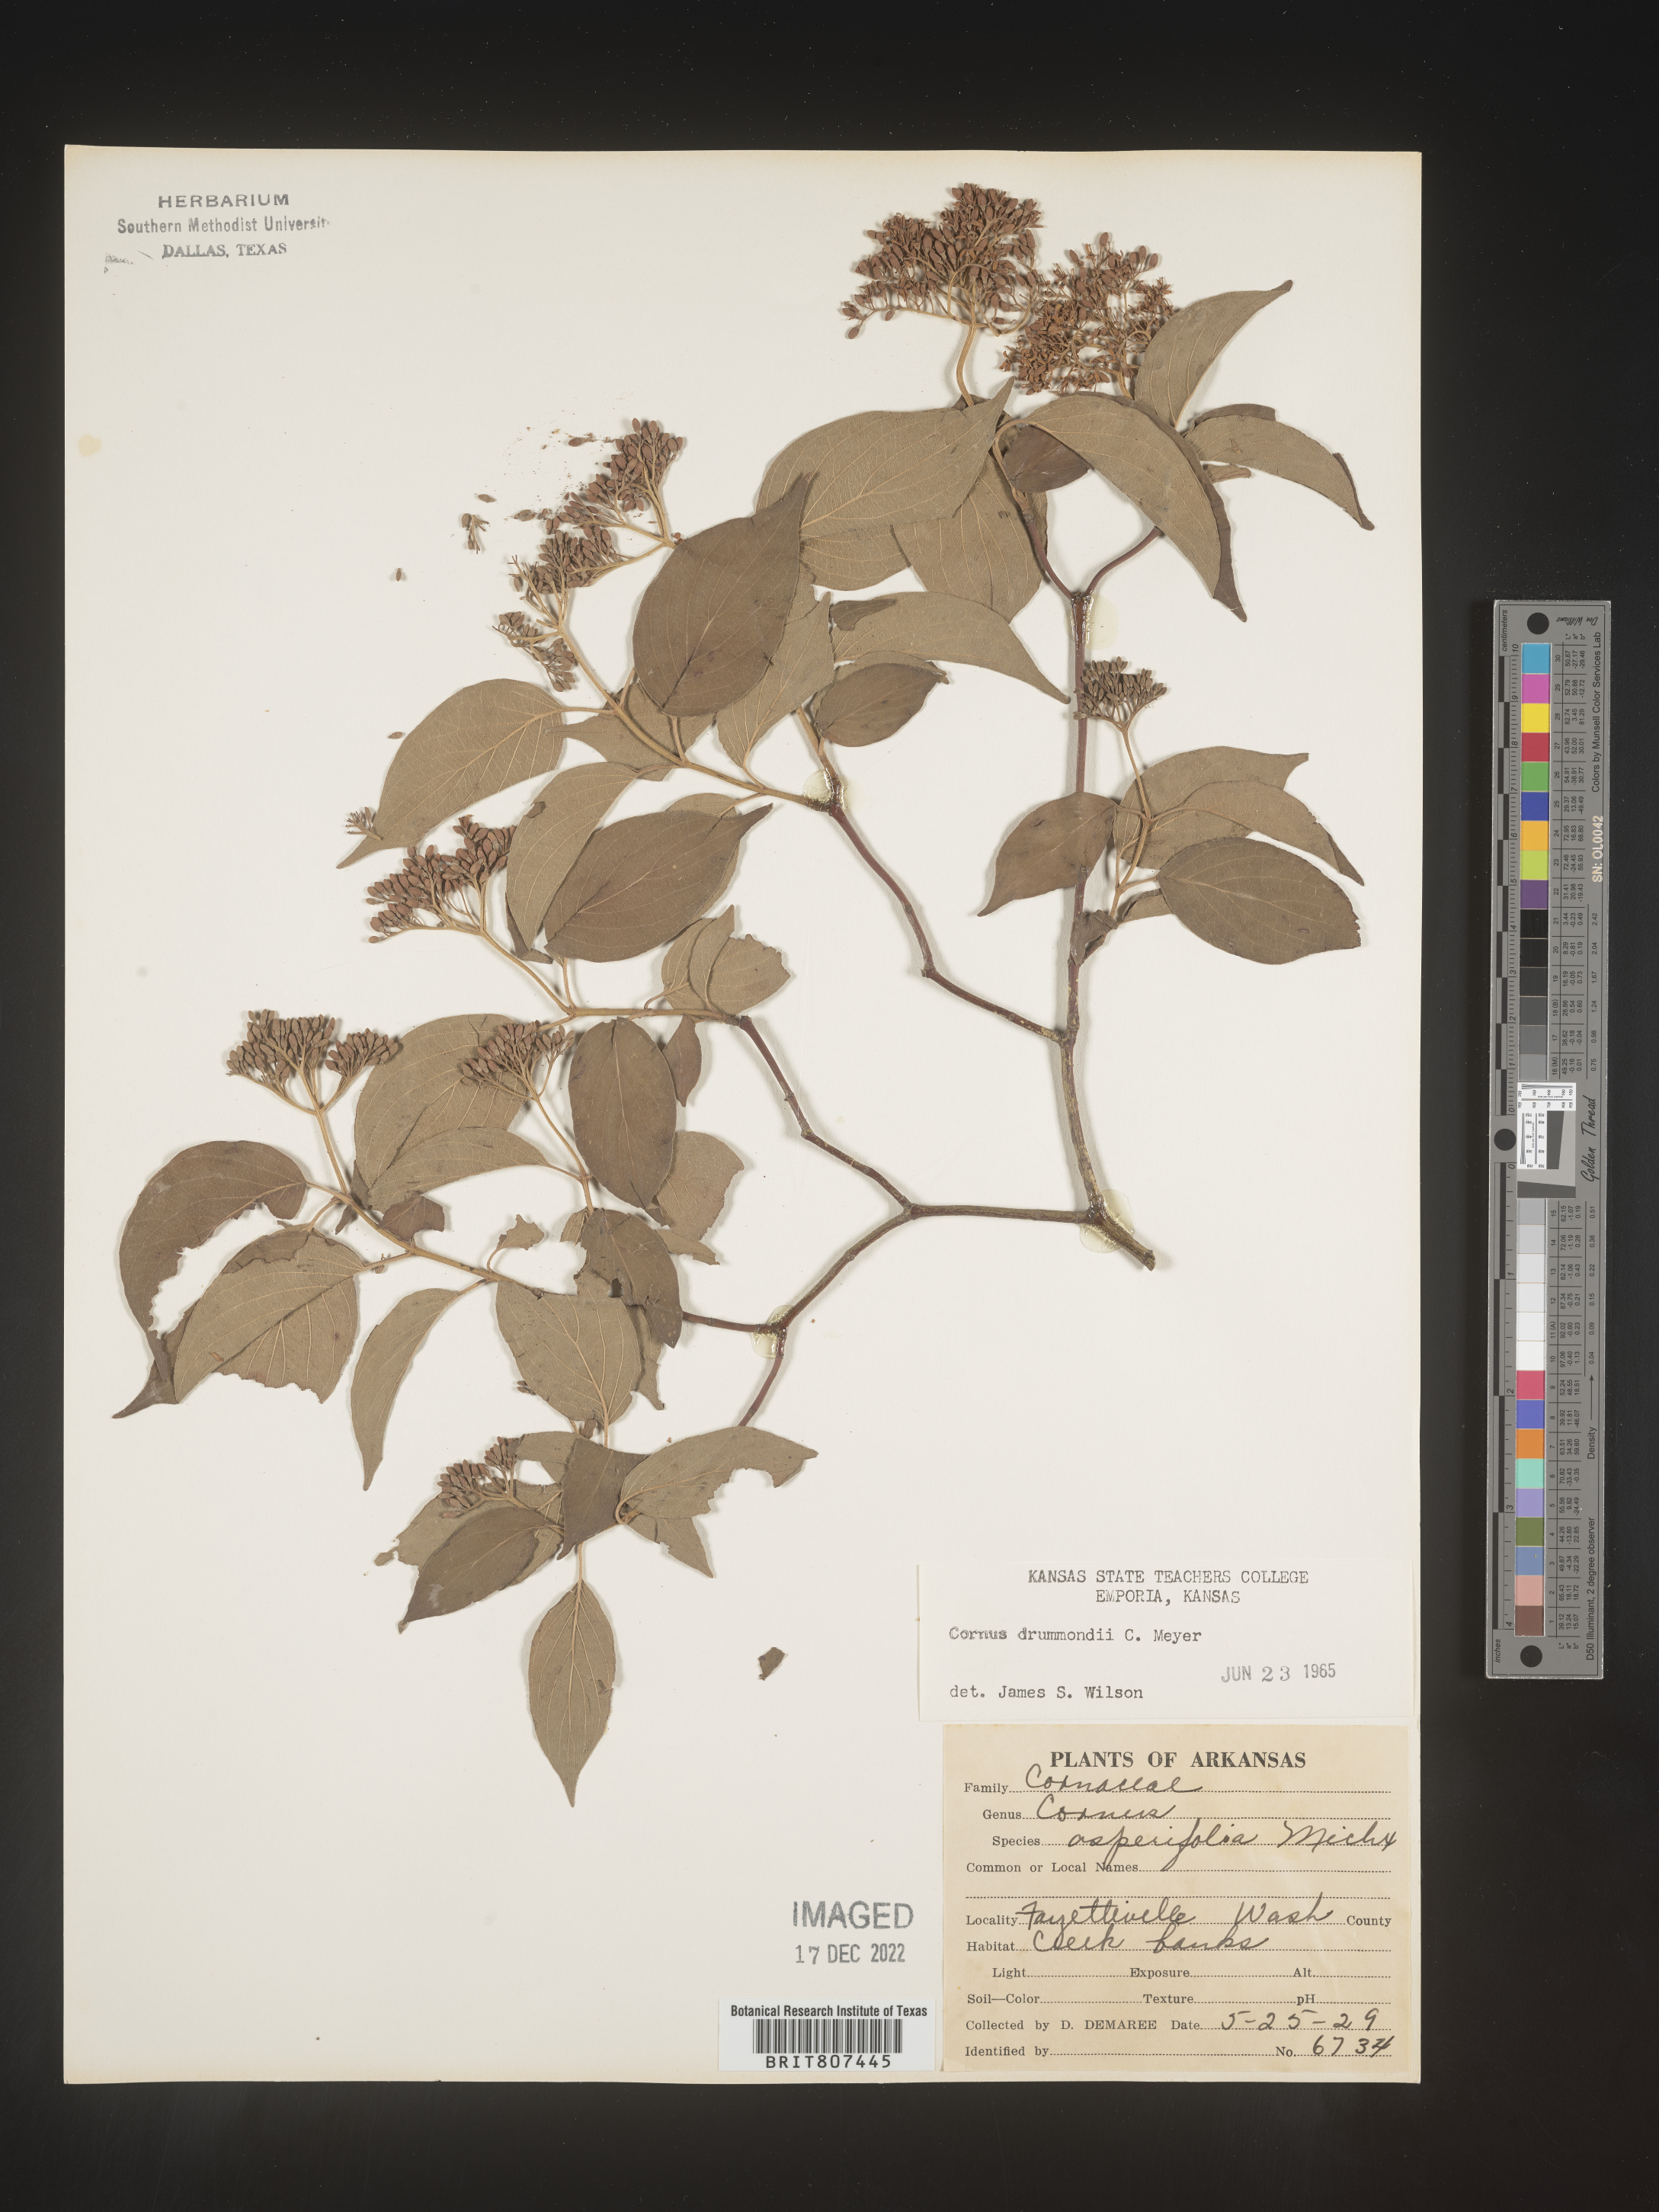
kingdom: Plantae
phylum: Tracheophyta
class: Magnoliopsida
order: Cornales
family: Cornaceae
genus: Cornus
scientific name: Cornus drummondii
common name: Rough-leaf dogwood
